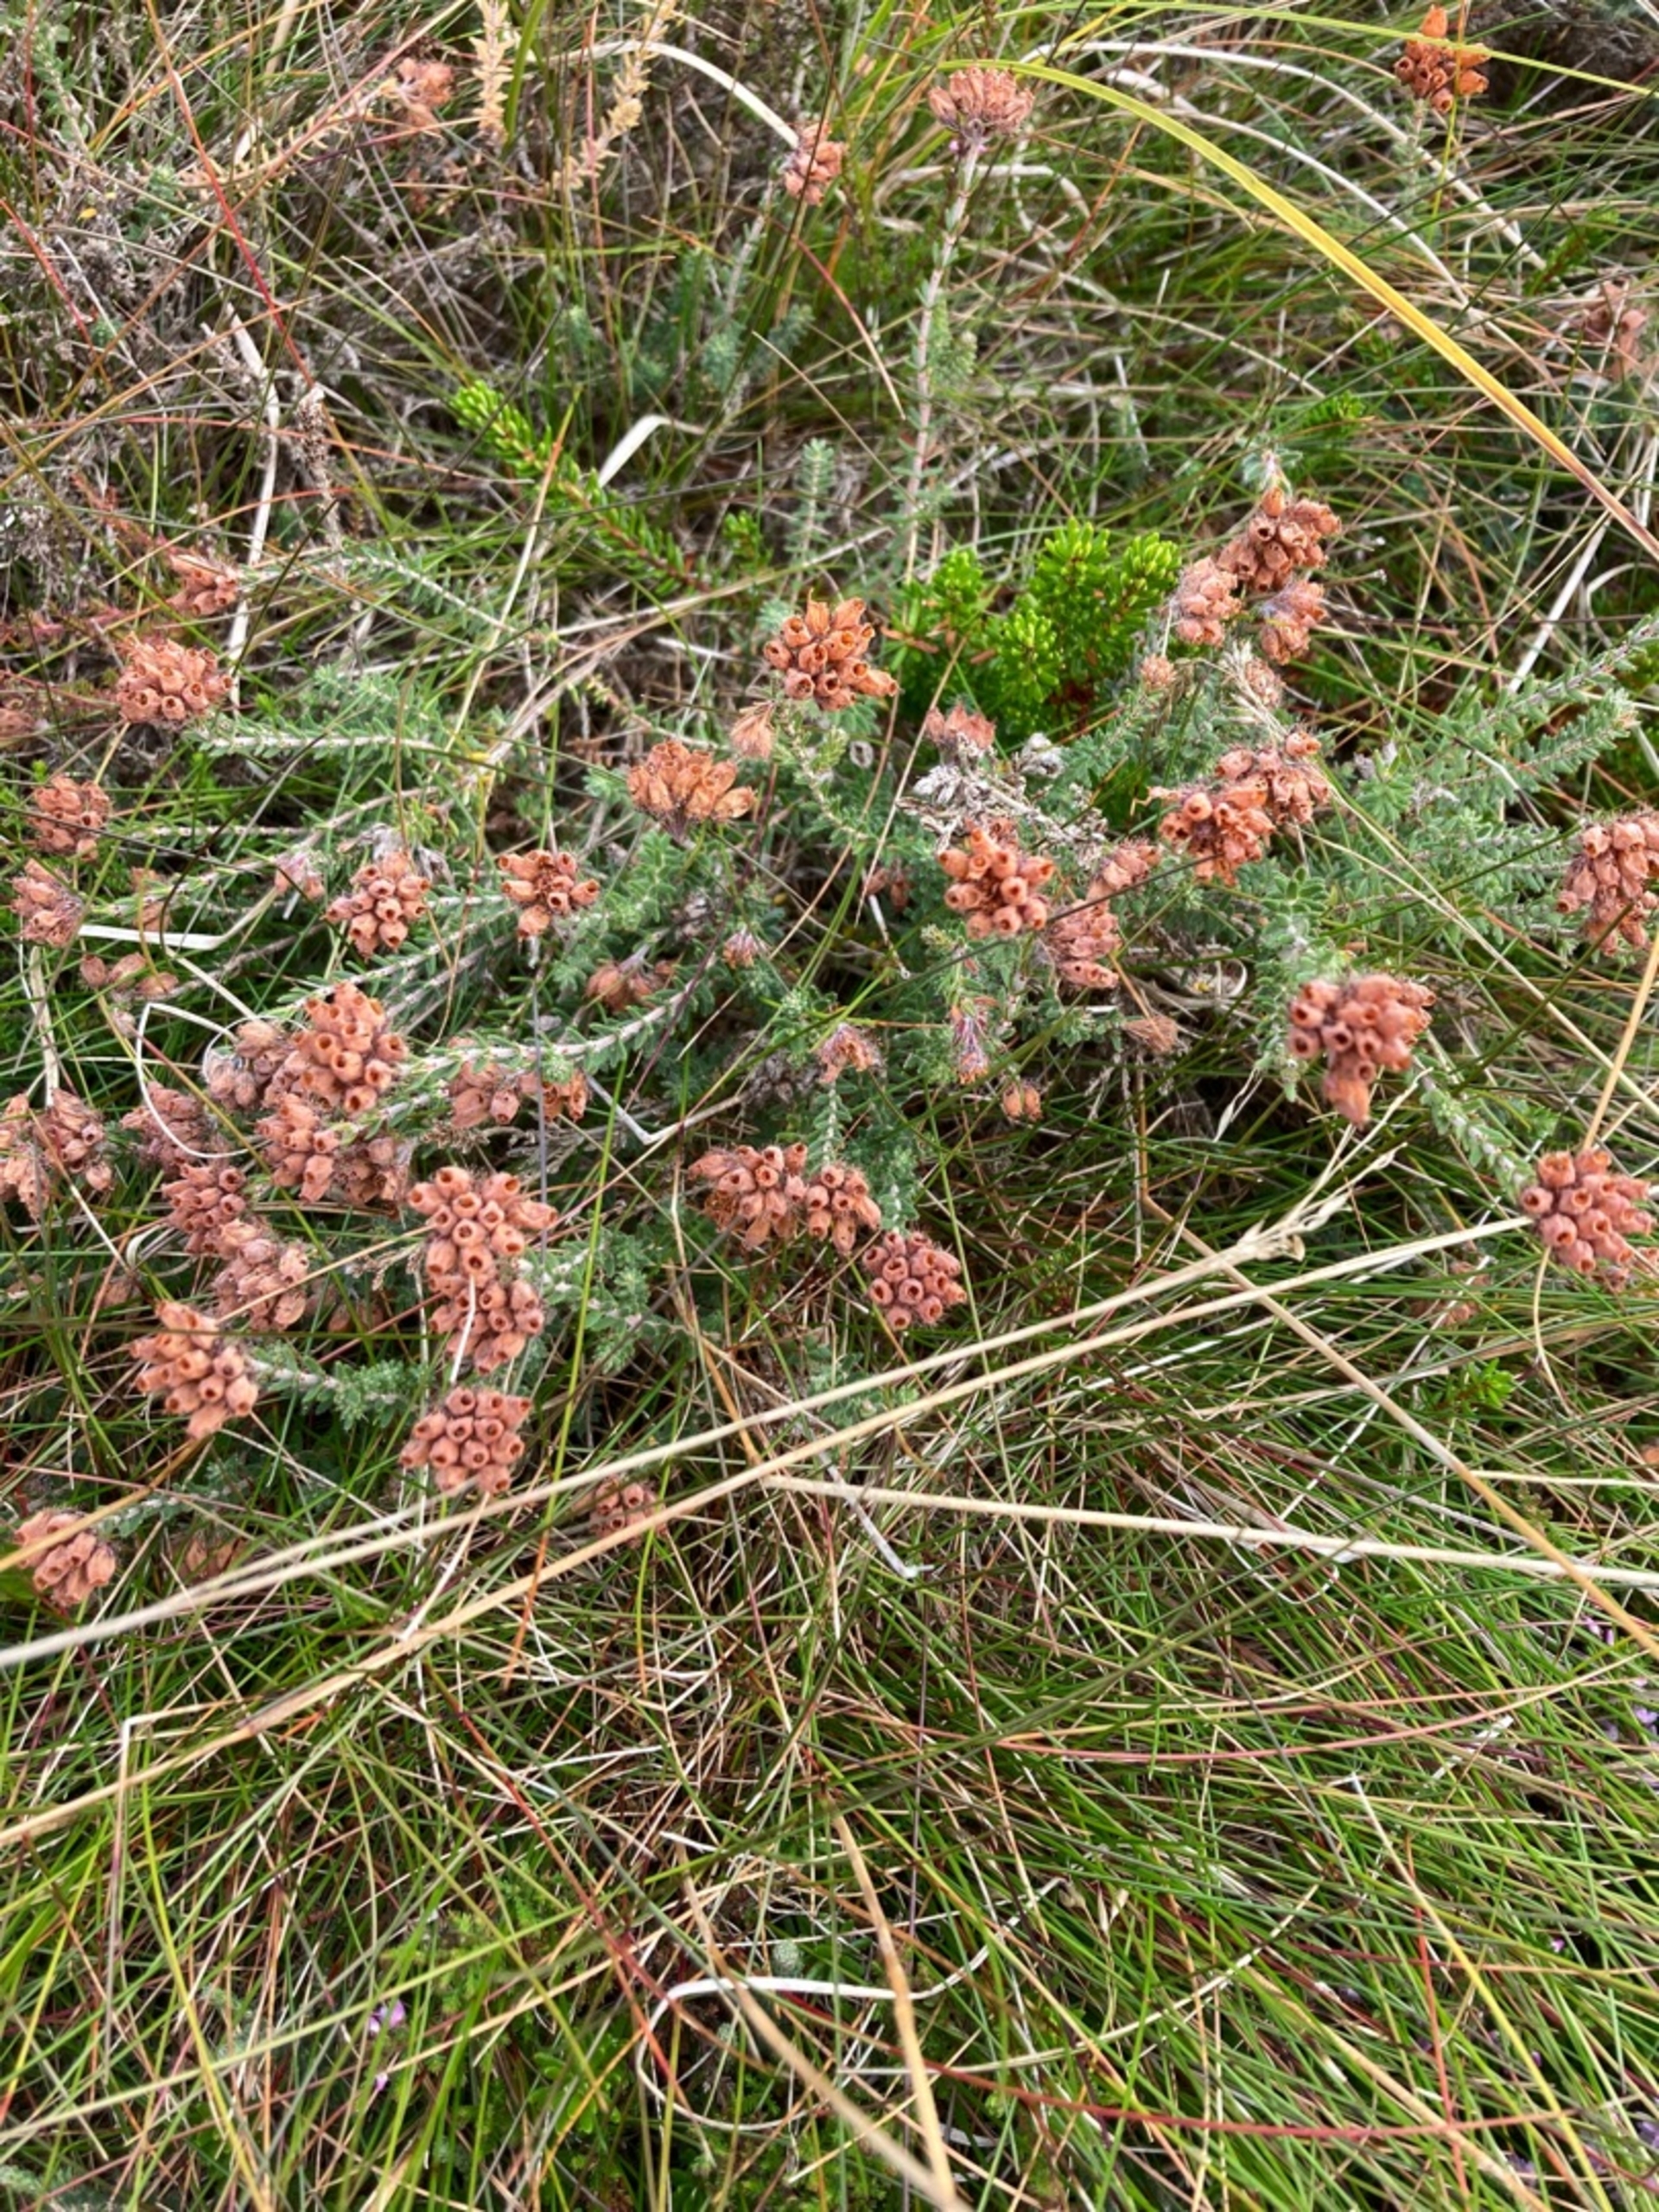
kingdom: Plantae
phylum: Tracheophyta
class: Magnoliopsida
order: Ericales
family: Ericaceae
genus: Erica
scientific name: Erica tetralix
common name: Klokkelyng
